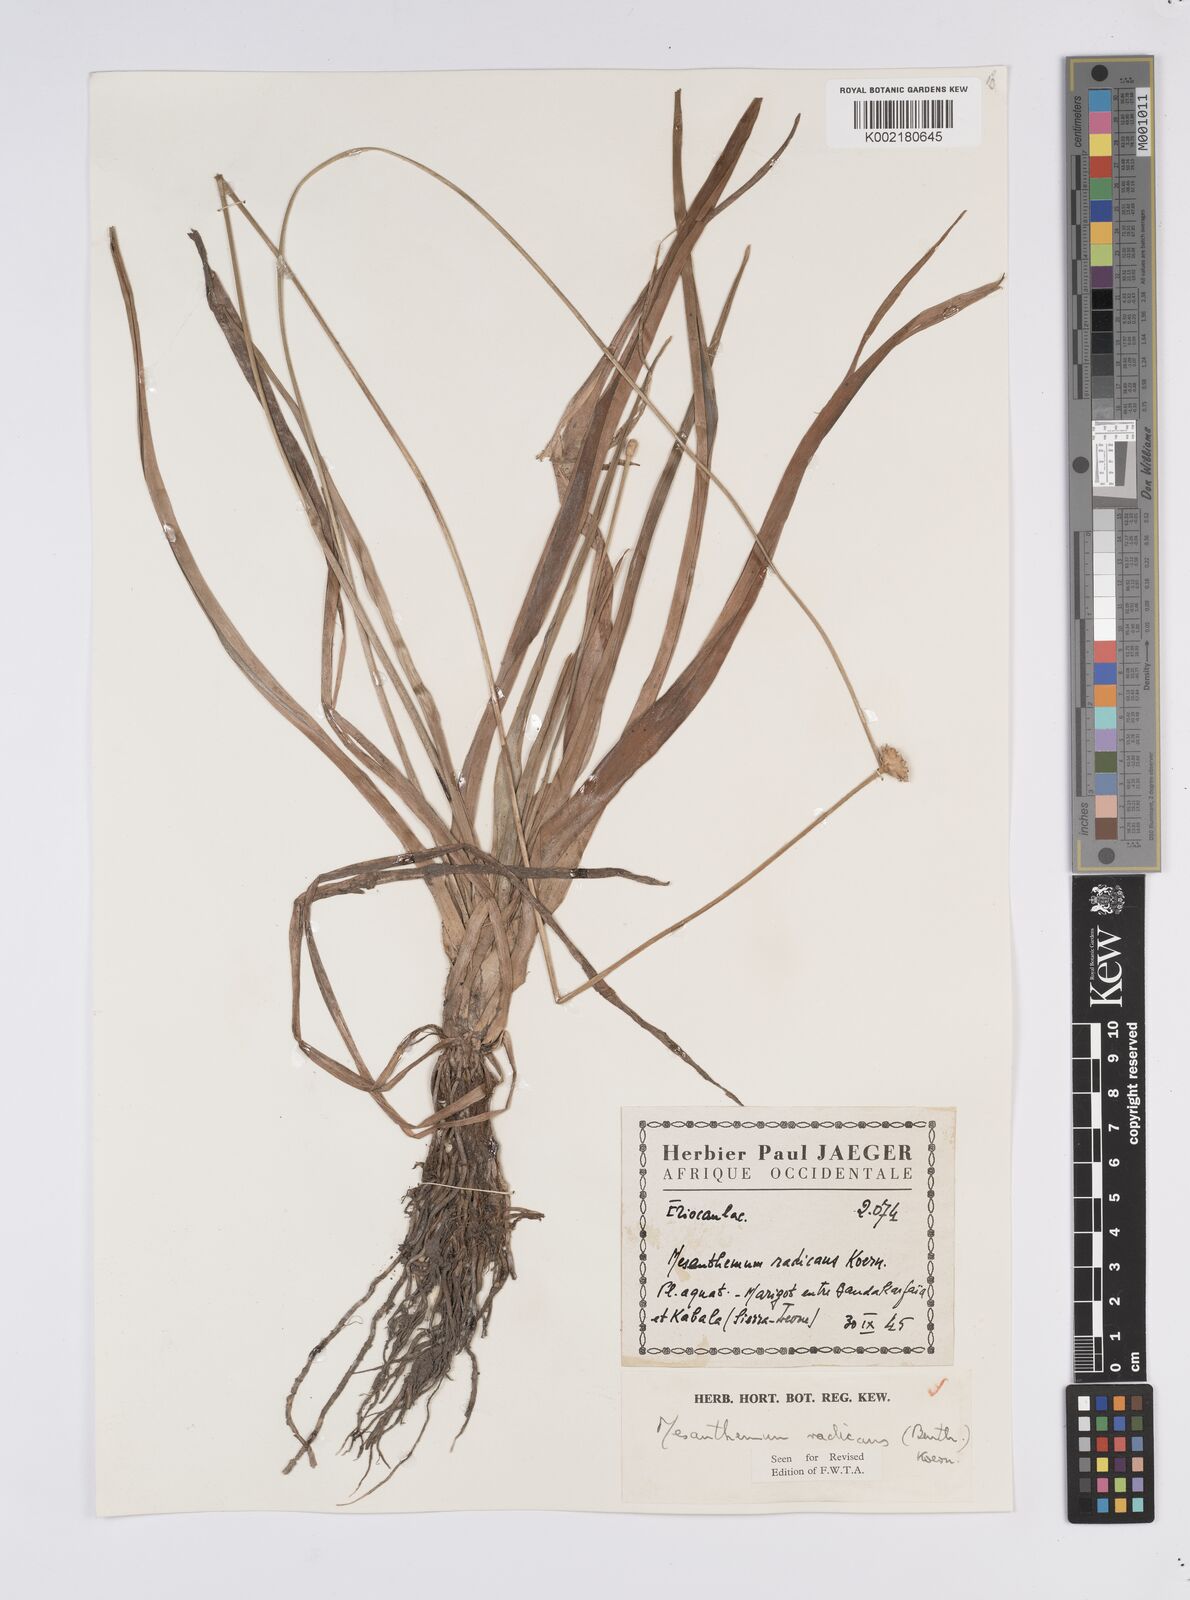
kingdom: Plantae
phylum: Tracheophyta
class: Liliopsida
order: Poales
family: Eriocaulaceae
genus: Mesanthemum
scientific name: Mesanthemum radicans
